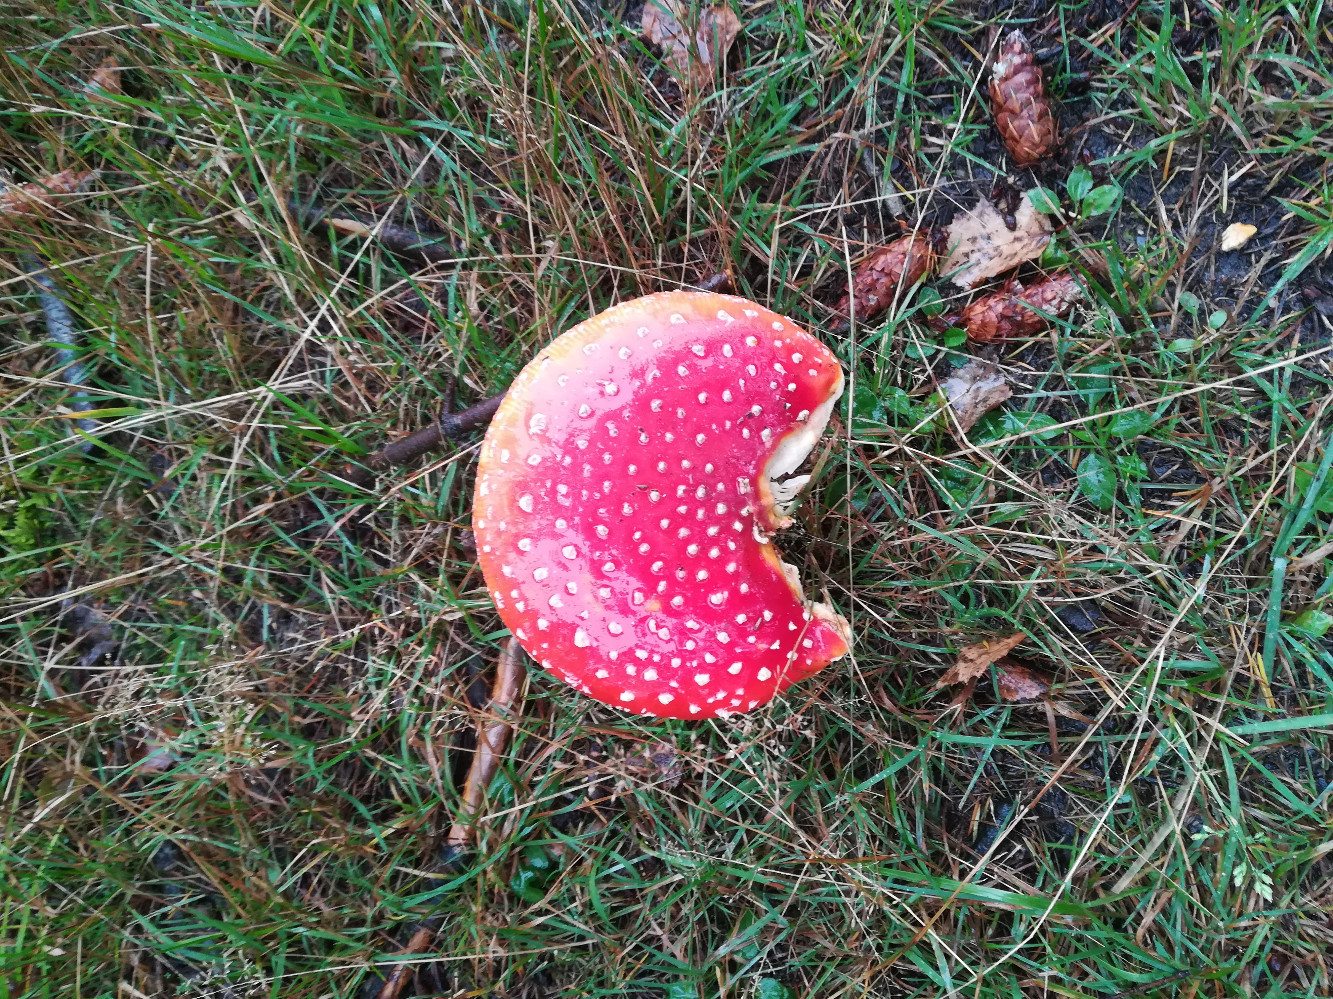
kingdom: Fungi
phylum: Basidiomycota
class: Agaricomycetes
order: Agaricales
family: Amanitaceae
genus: Amanita
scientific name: Amanita muscaria
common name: rød fluesvamp
